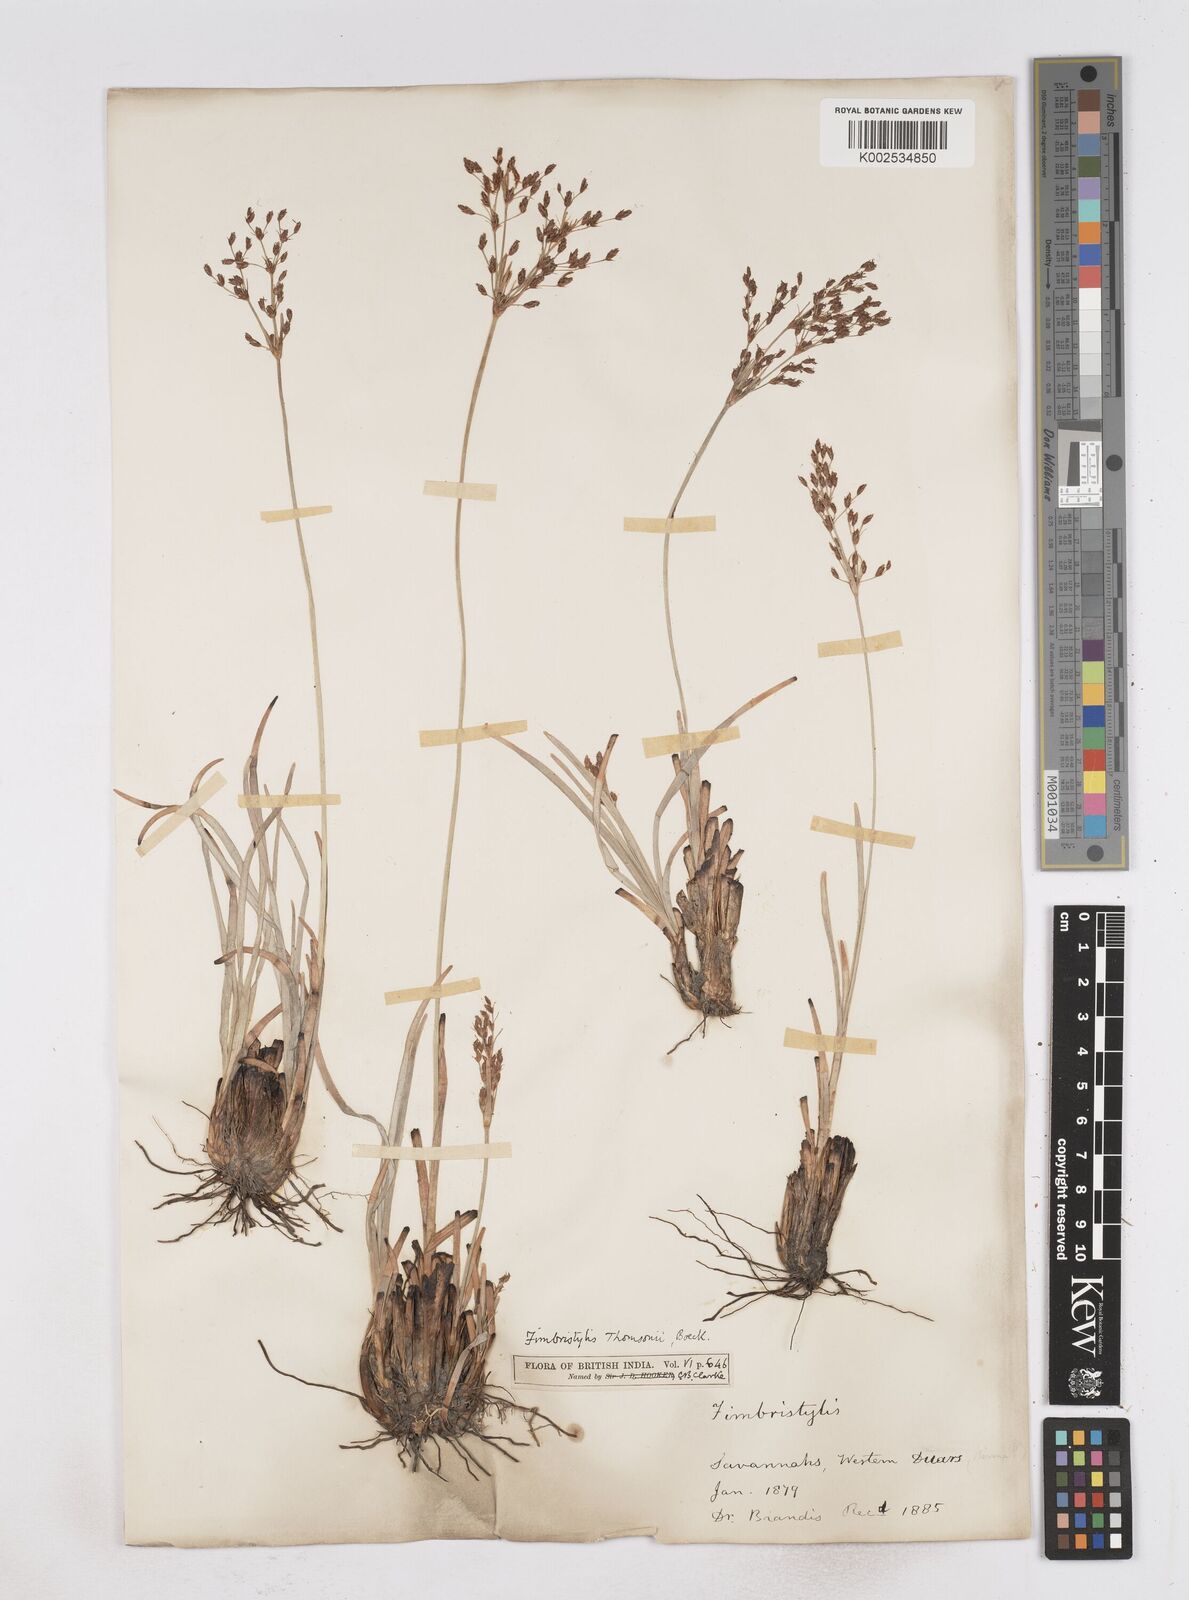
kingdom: Plantae
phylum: Tracheophyta
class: Liliopsida
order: Poales
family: Cyperaceae
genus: Fimbristylis
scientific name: Fimbristylis thomsonii
